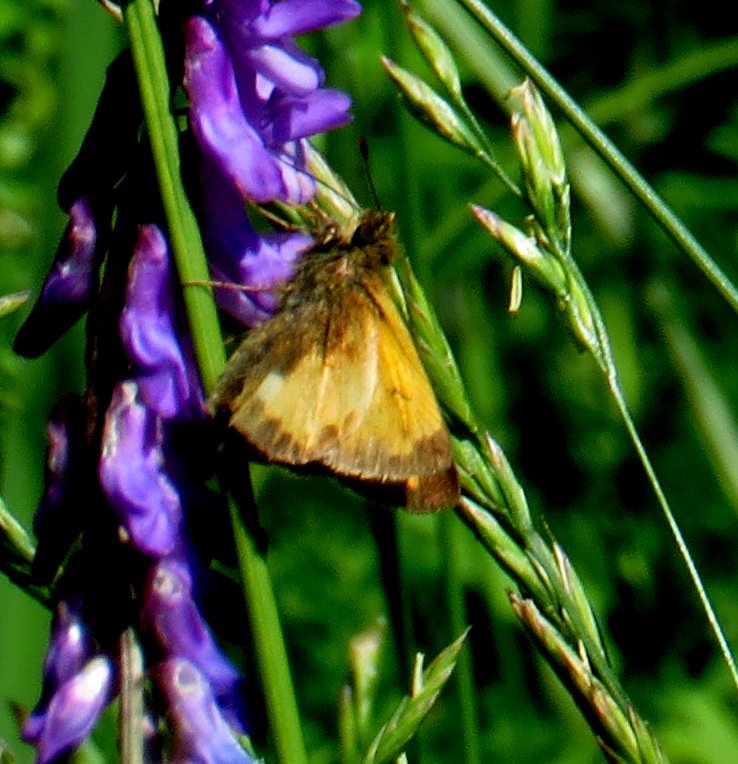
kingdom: Animalia
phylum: Arthropoda
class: Insecta
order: Lepidoptera
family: Hesperiidae
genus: Lon
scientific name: Lon hobomok
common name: Hobomok Skipper
